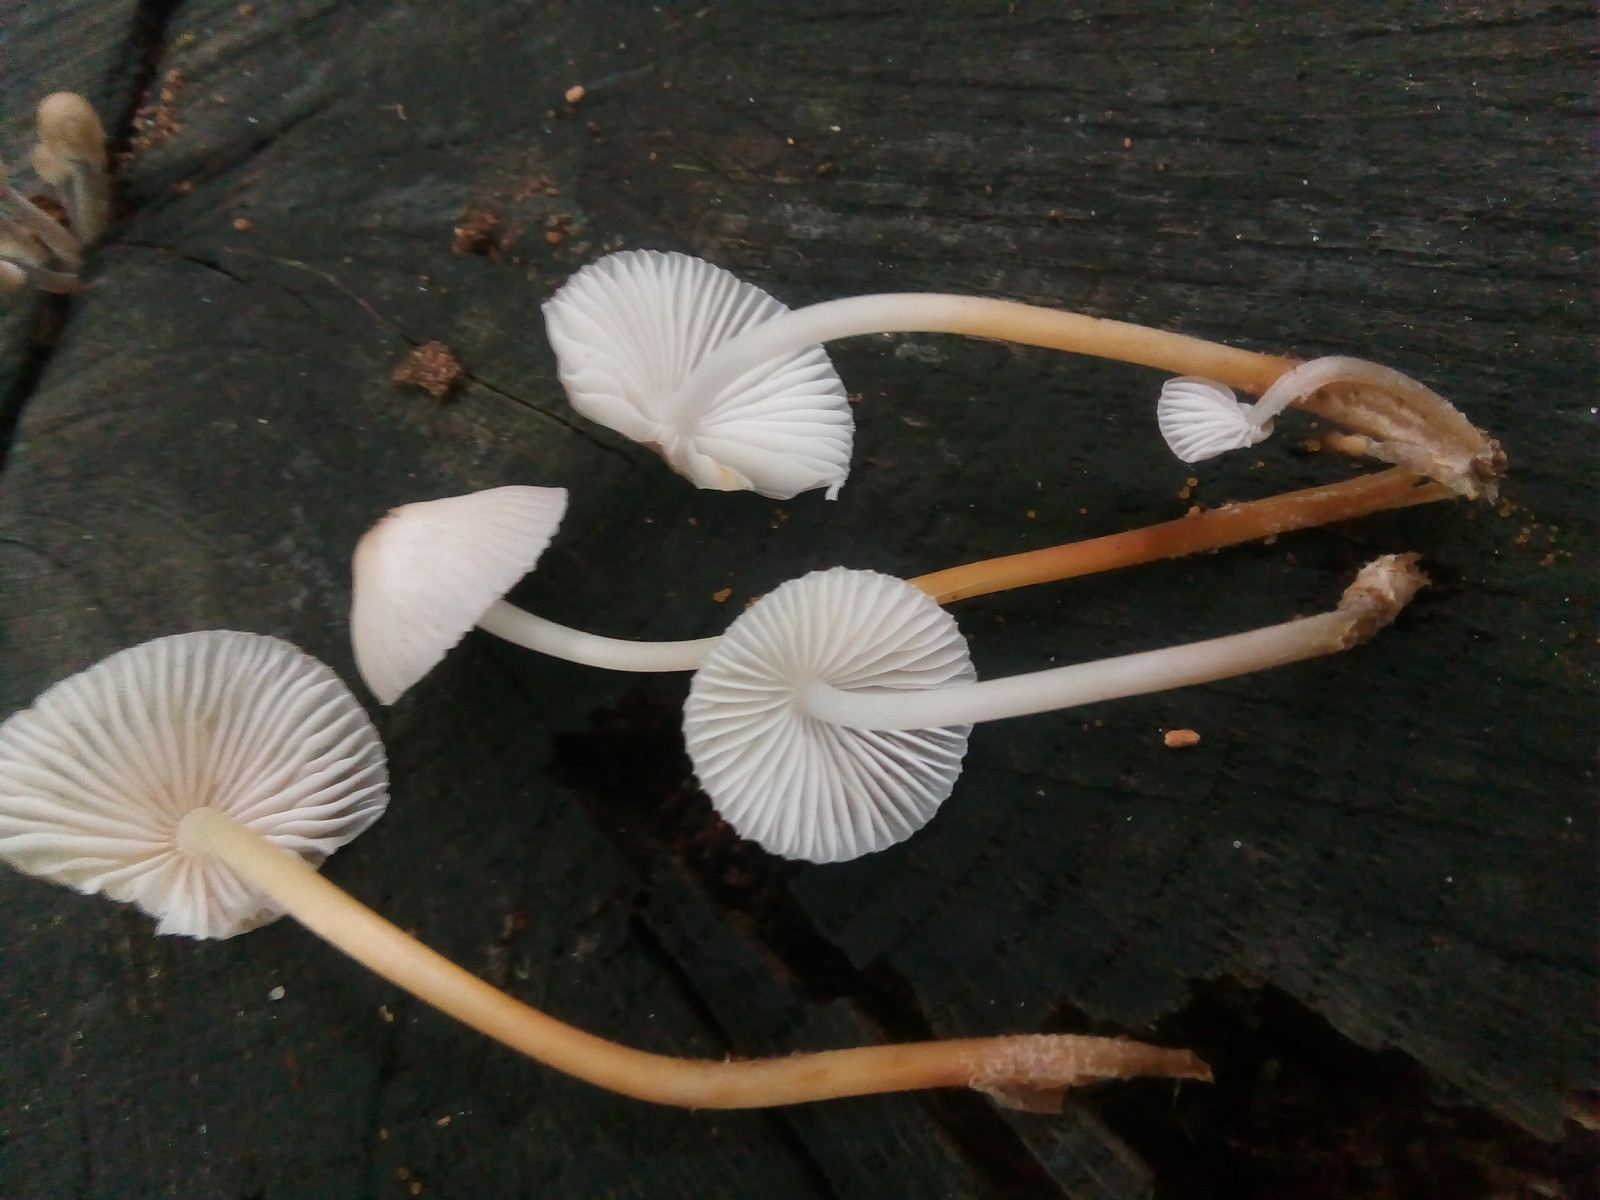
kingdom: Fungi
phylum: Basidiomycota
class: Agaricomycetes
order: Agaricales
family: Mycenaceae
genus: Mycena
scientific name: Mycena inclinata
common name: nikkende huesvamp
